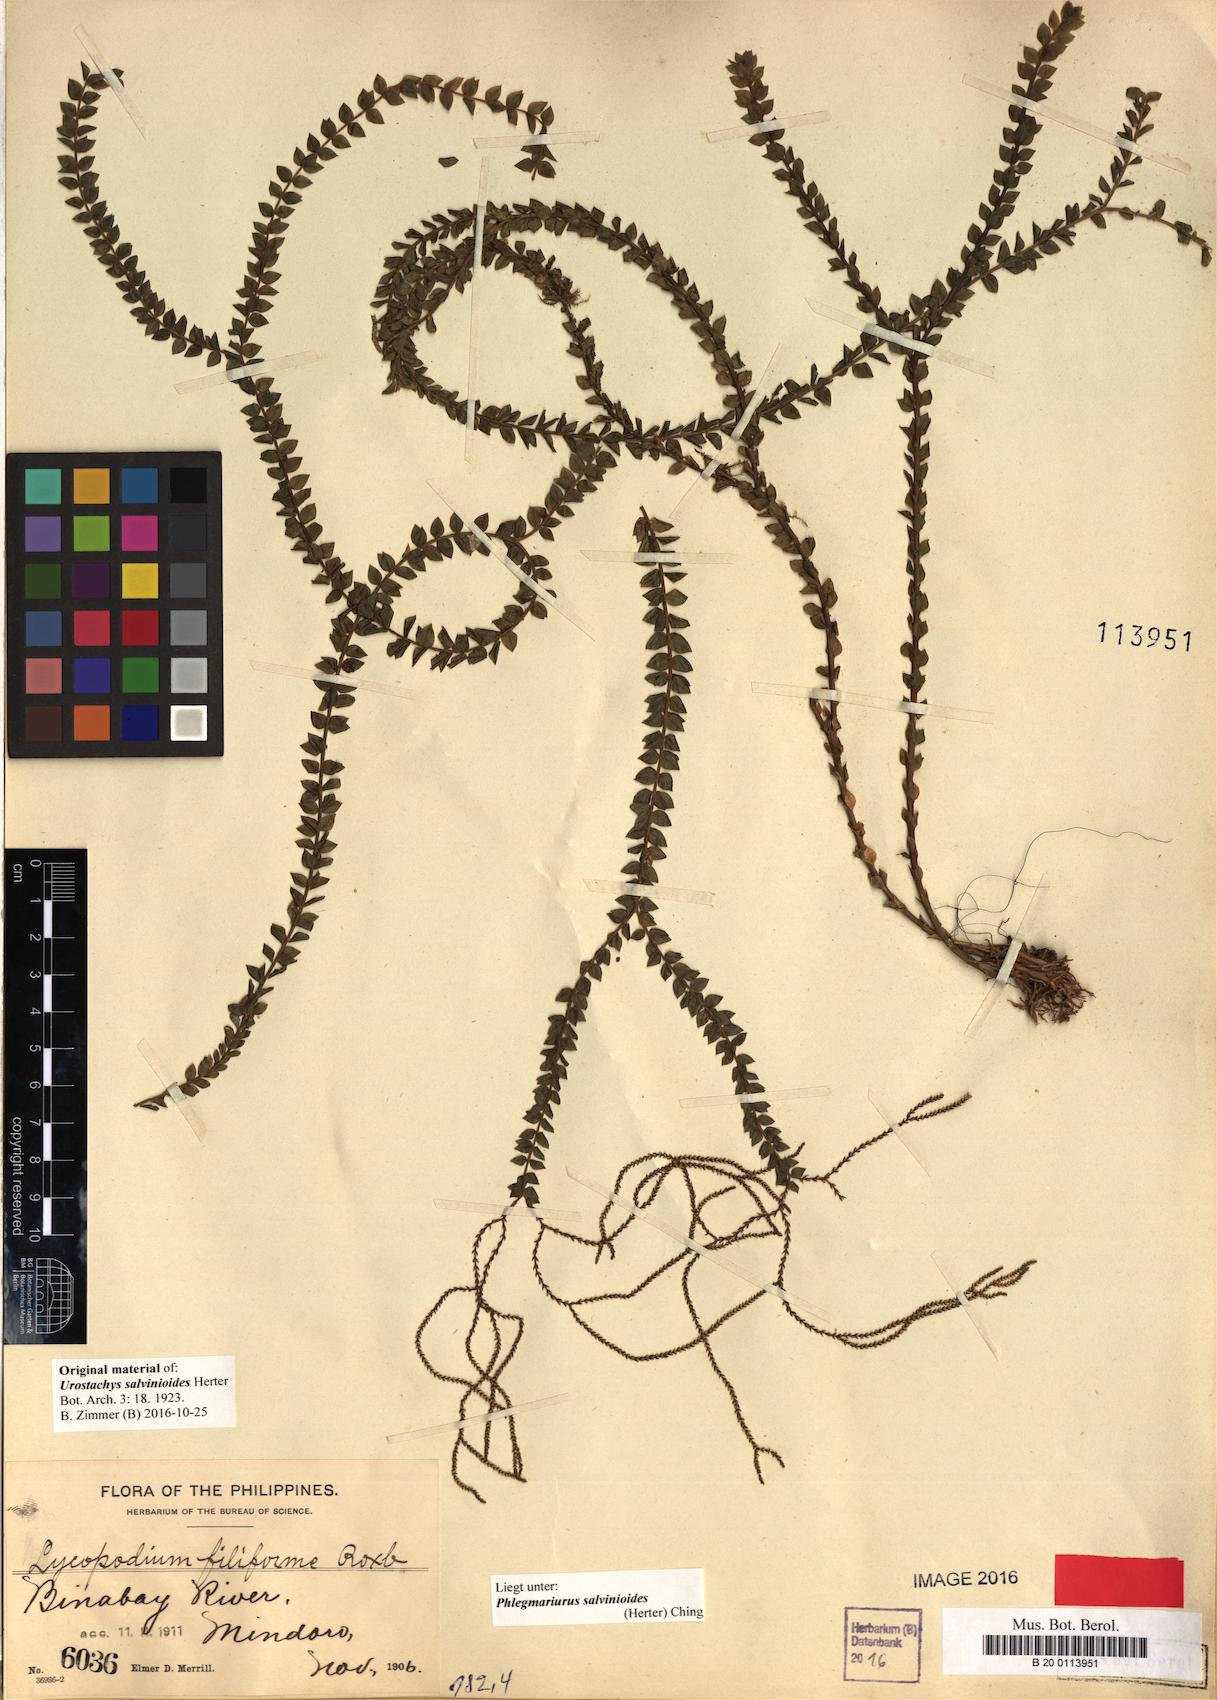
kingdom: Plantae
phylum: Tracheophyta
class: Lycopodiopsida
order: Lycopodiales
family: Lycopodiaceae
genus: Phlegmariurus
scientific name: Phlegmariurus salvinioides
